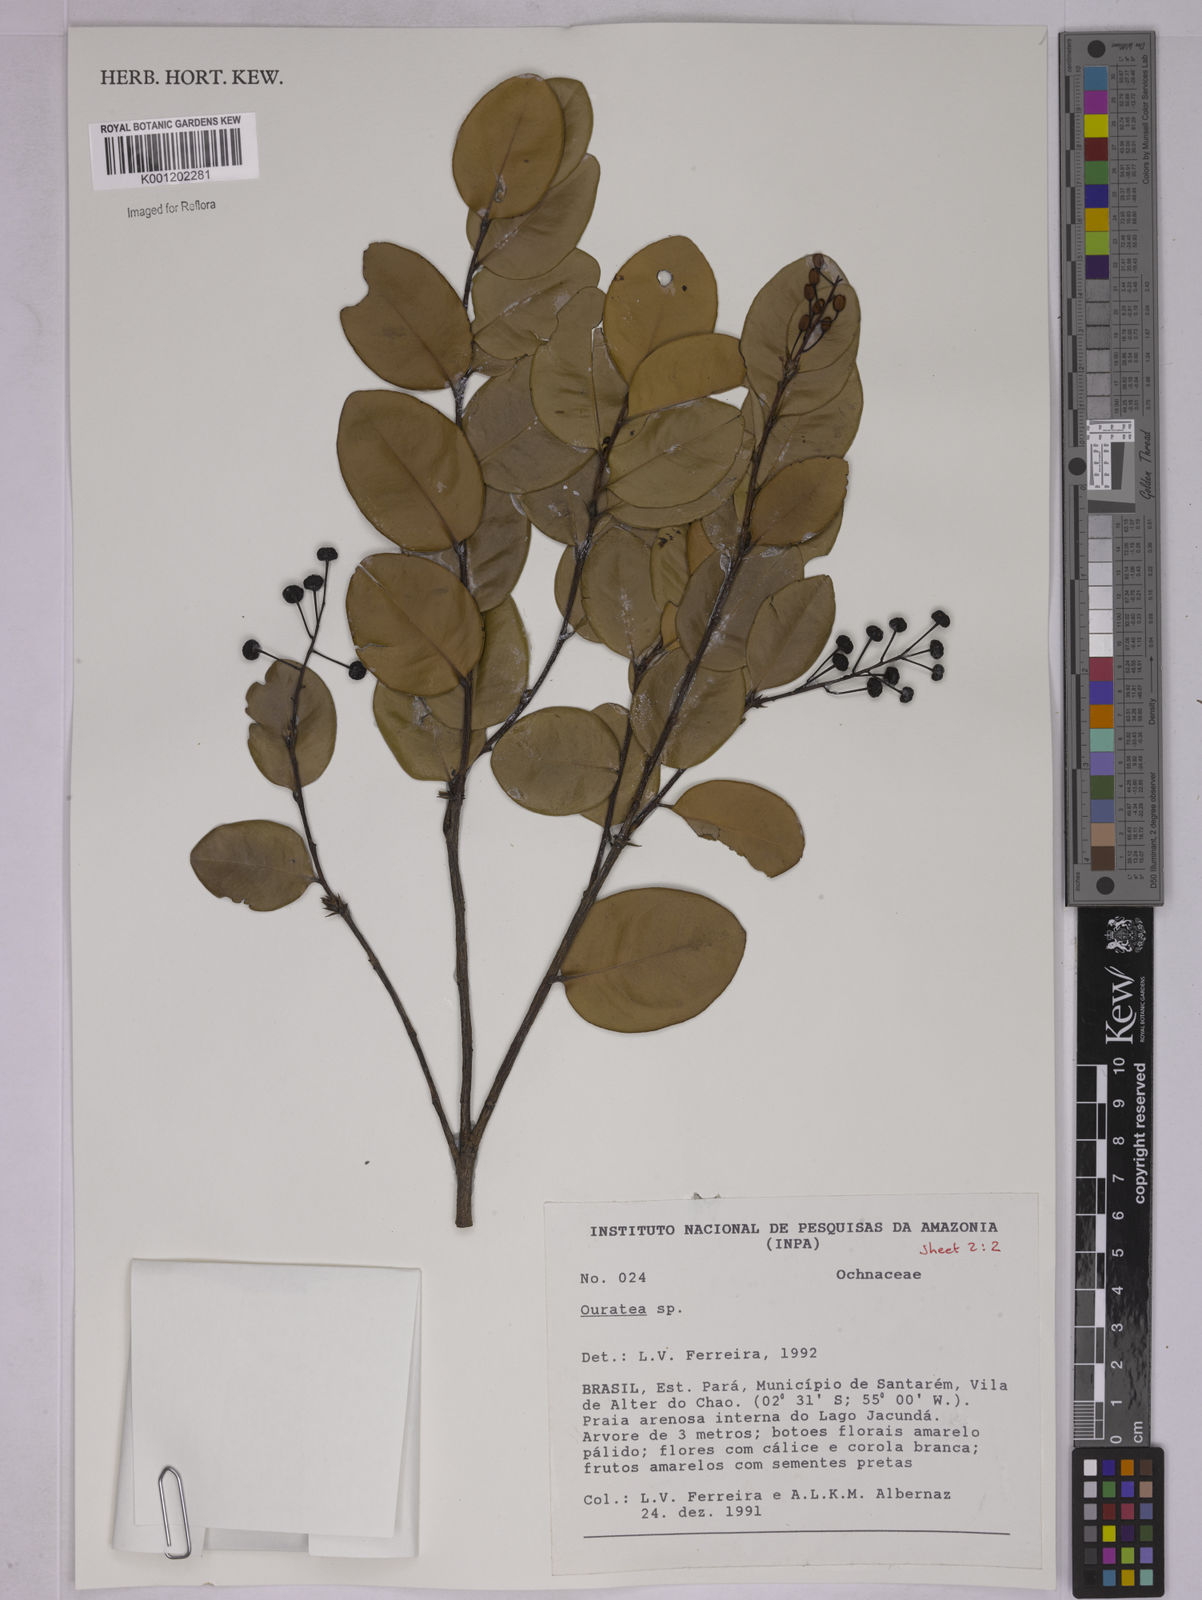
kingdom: Plantae
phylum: Tracheophyta
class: Magnoliopsida
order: Malpighiales
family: Ochnaceae
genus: Ouratea
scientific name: Ouratea
